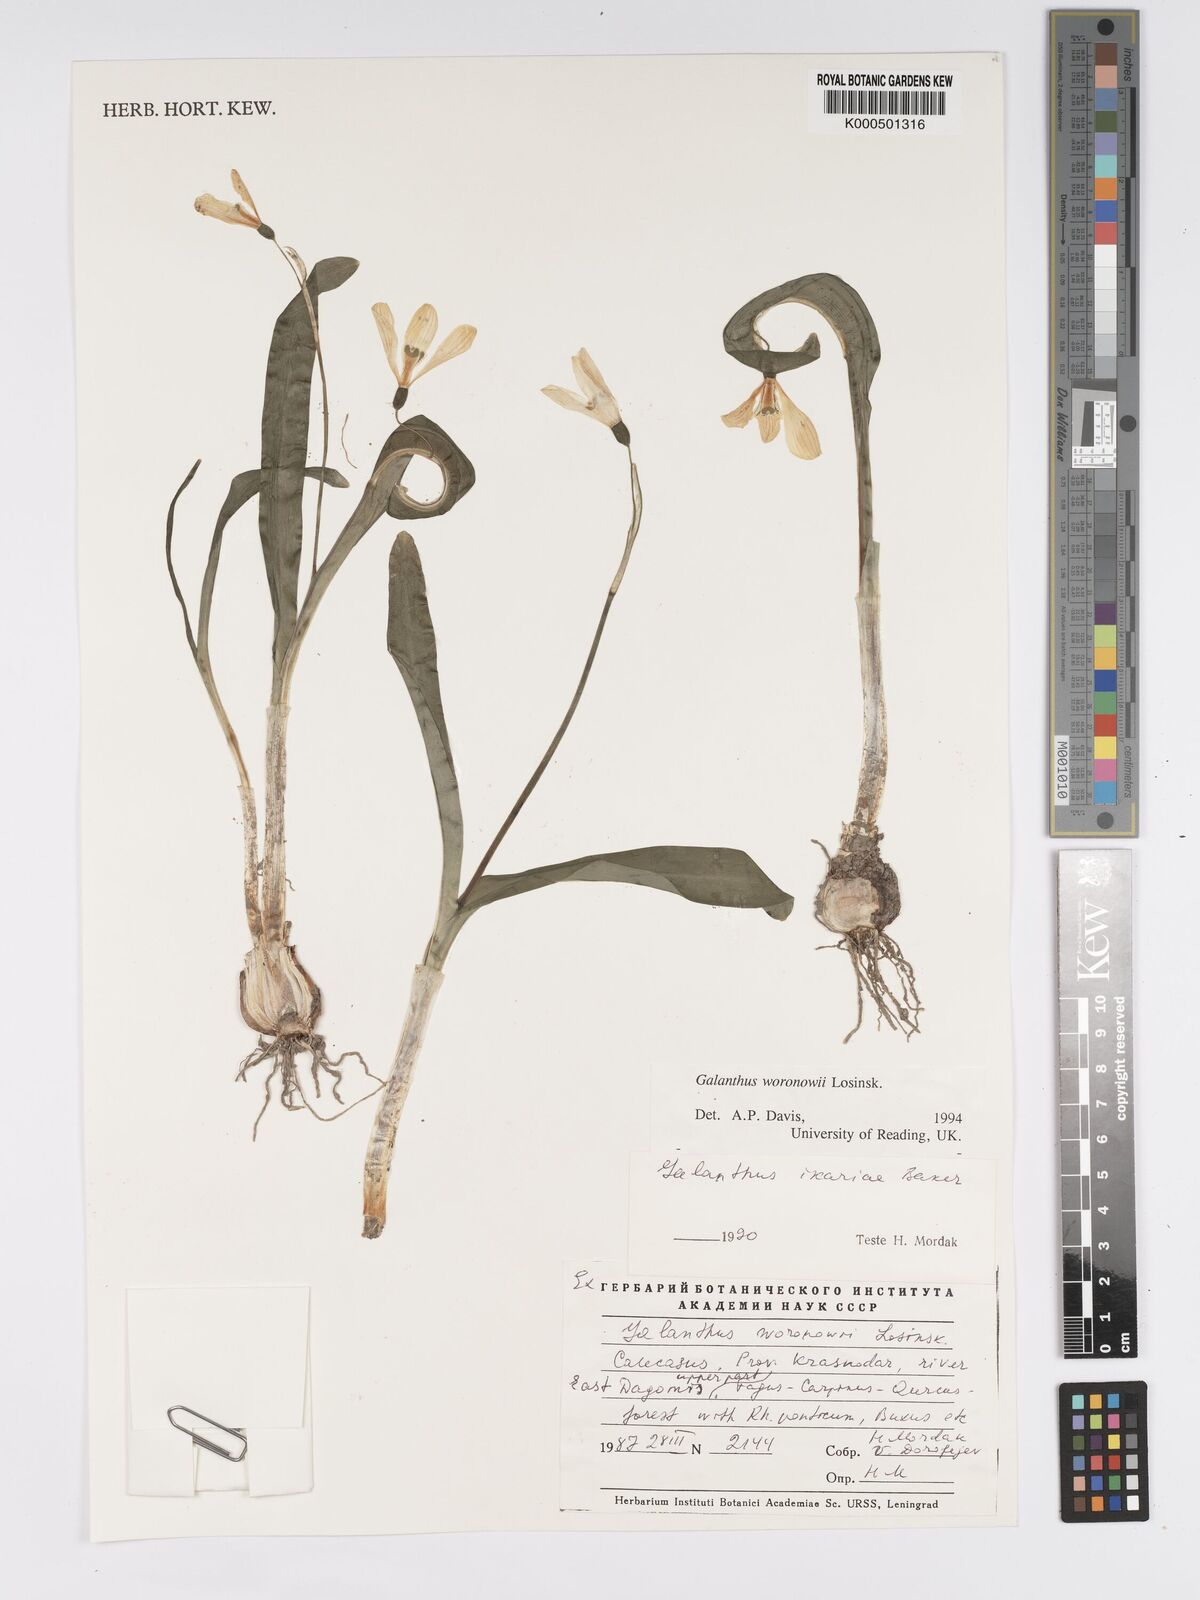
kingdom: Plantae
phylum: Tracheophyta
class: Liliopsida
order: Asparagales
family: Amaryllidaceae
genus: Galanthus
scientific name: Galanthus woronowii
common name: Green snowdrop
